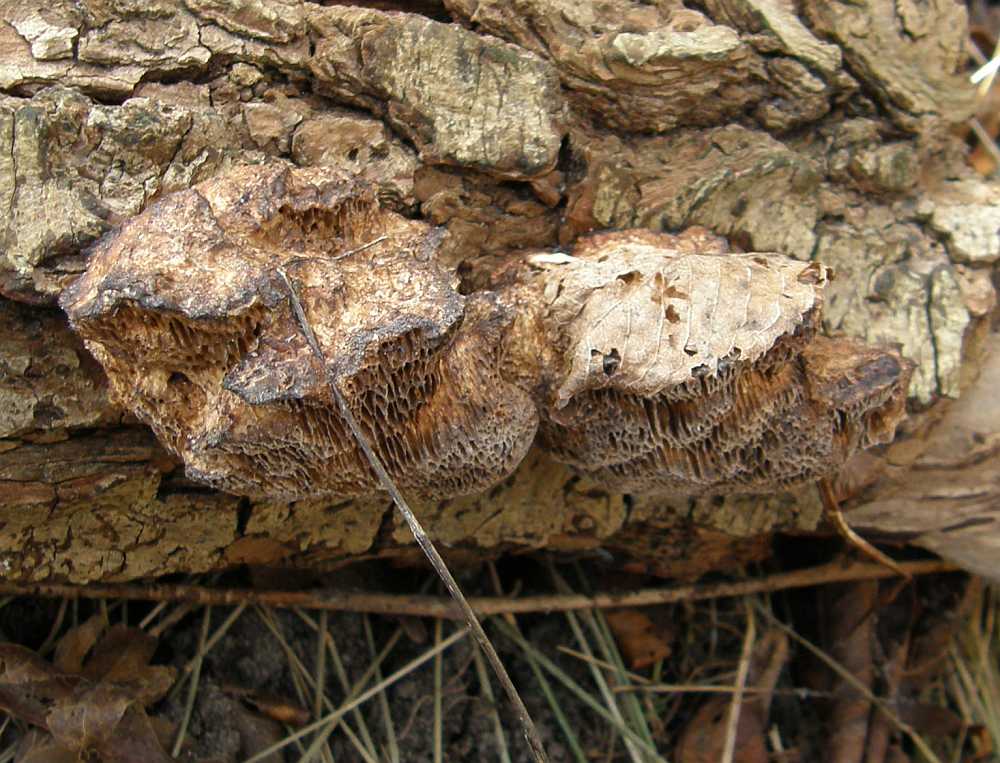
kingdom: Fungi
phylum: Basidiomycota
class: Agaricomycetes
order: Polyporales
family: Polyporaceae
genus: Daedaleopsis
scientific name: Daedaleopsis confragosa
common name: rødmende læderporesvamp
